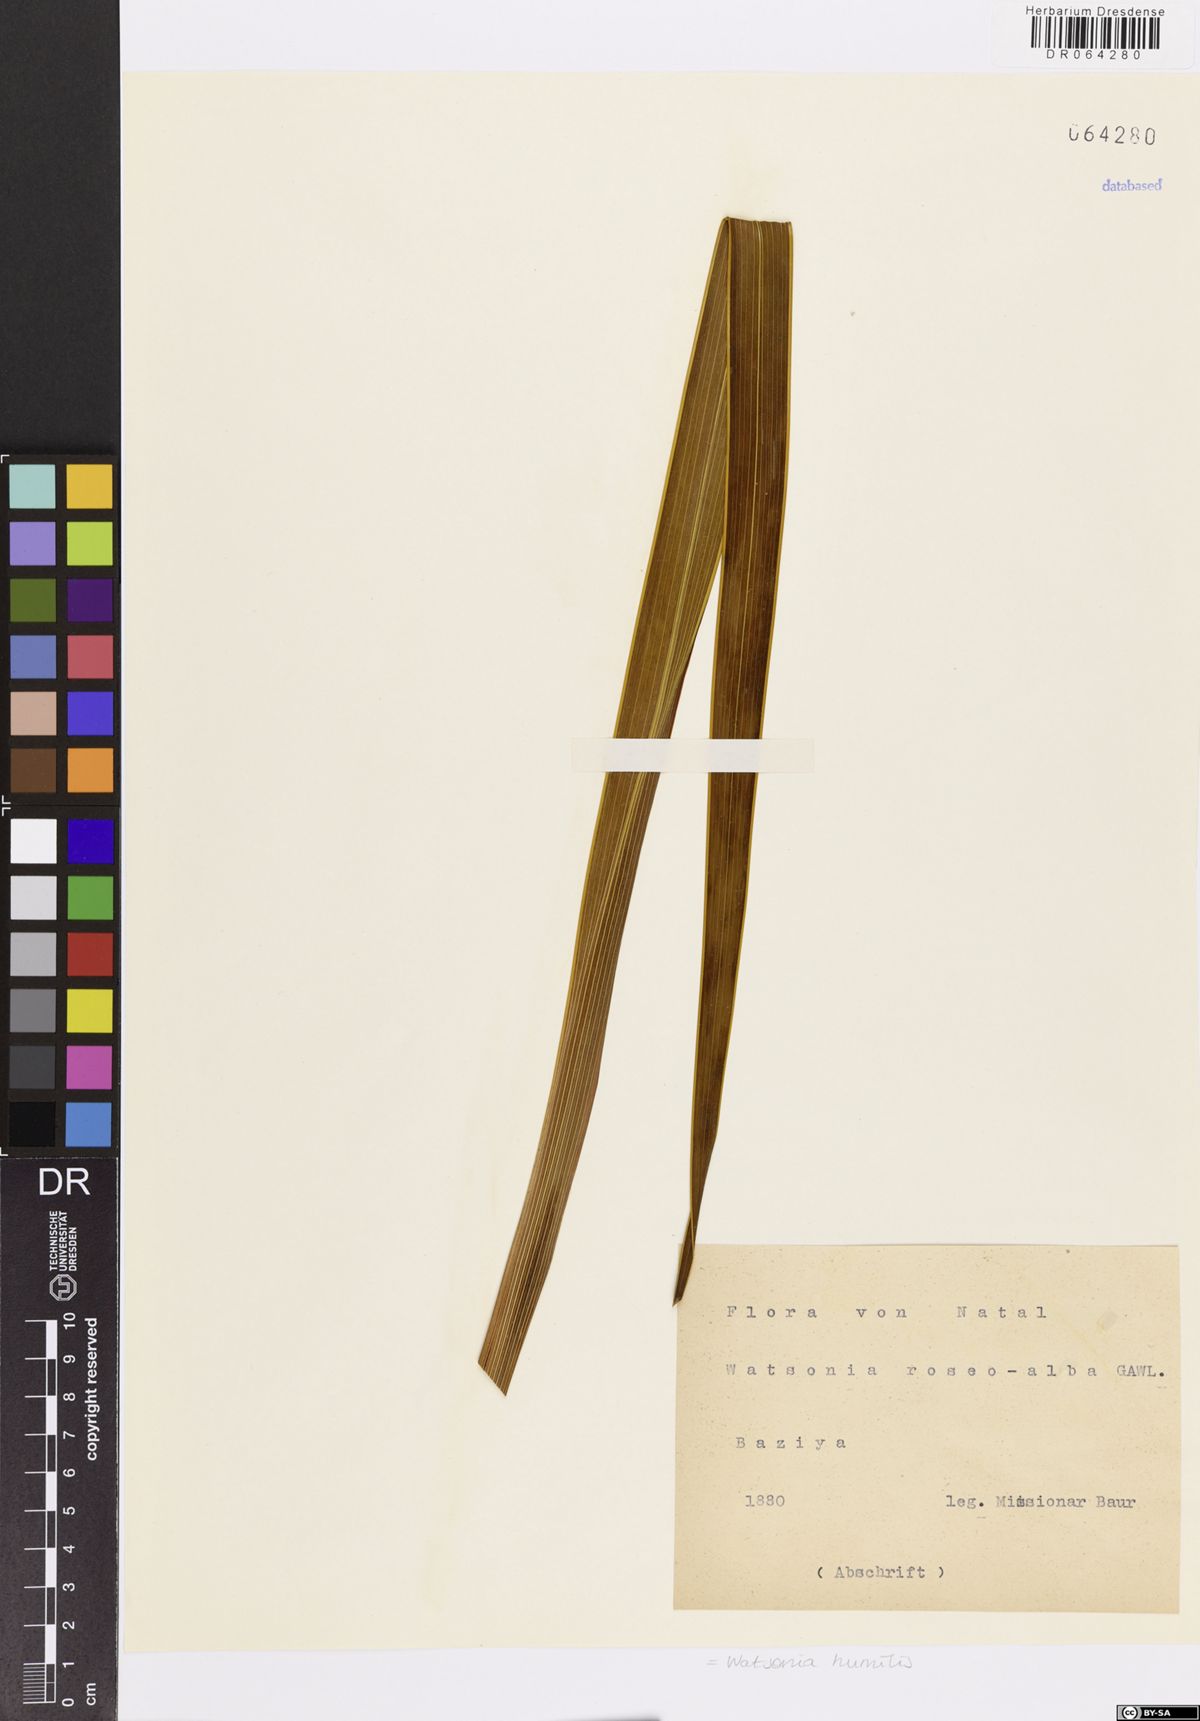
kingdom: Plantae
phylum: Tracheophyta
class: Liliopsida
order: Asparagales
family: Iridaceae
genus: Watsonia
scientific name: Watsonia humilis
